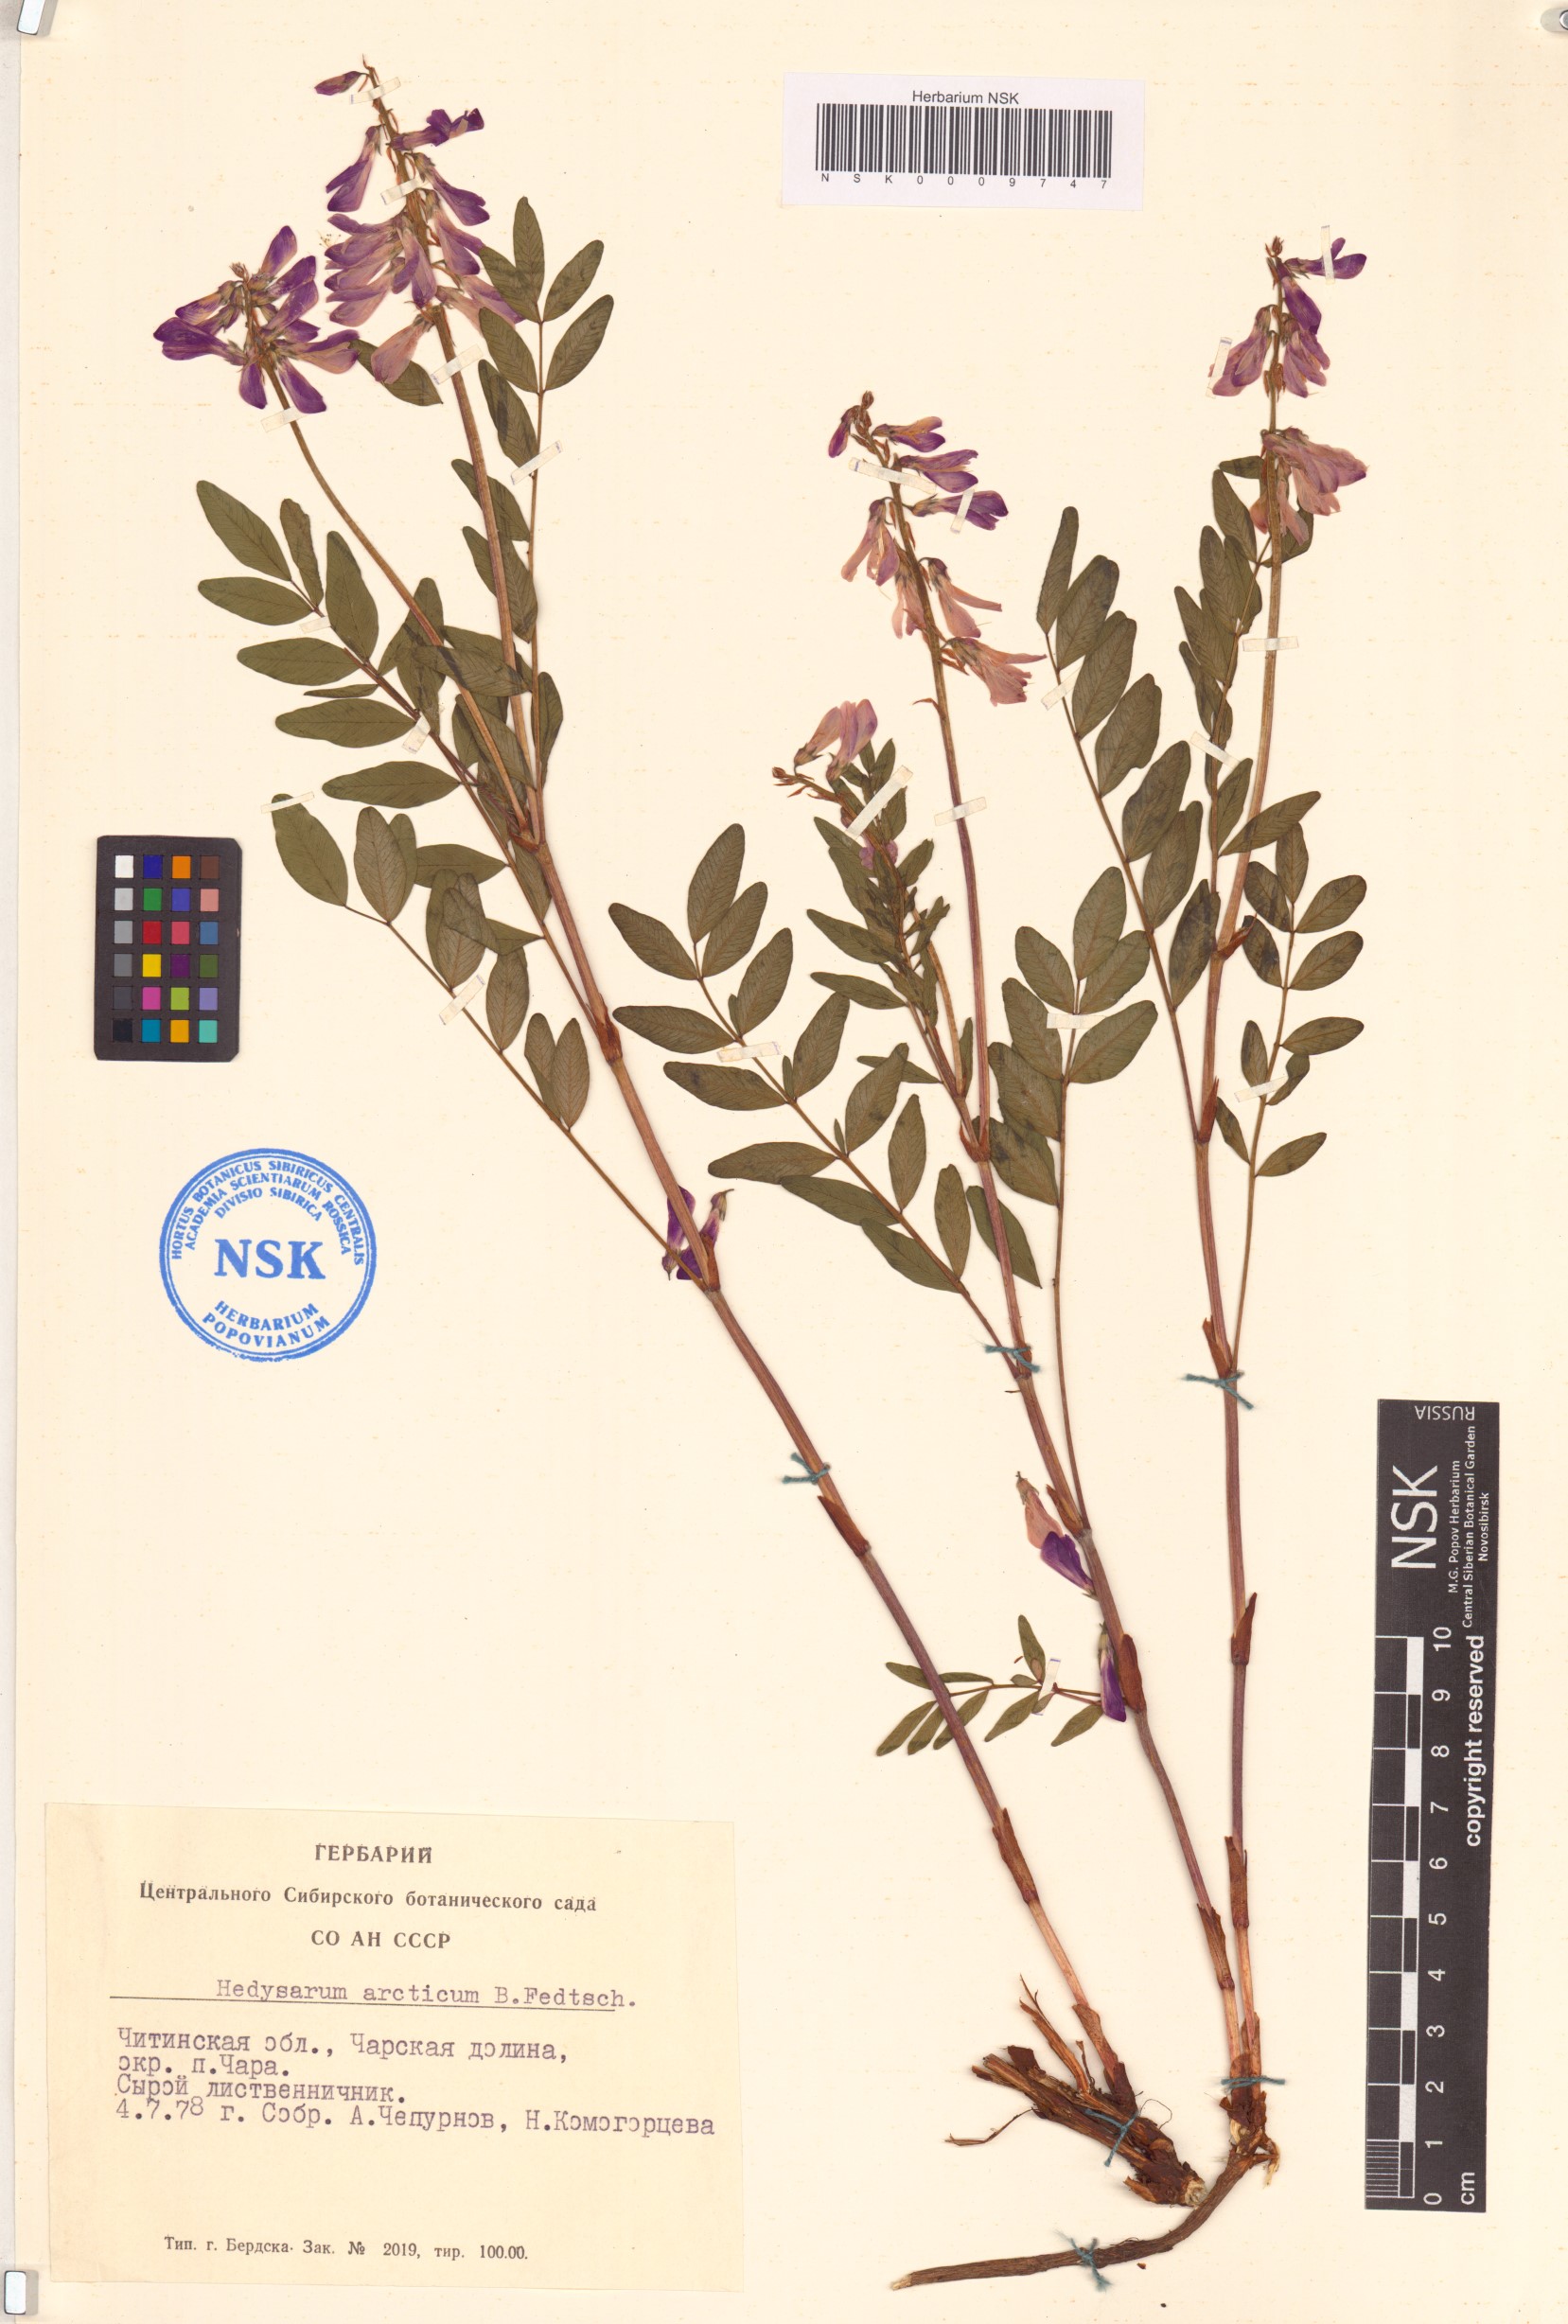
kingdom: Plantae
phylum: Tracheophyta
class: Magnoliopsida
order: Fabales
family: Fabaceae
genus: Hedysarum
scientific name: Hedysarum hedysaroides
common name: Alpine french-honeysuckle
